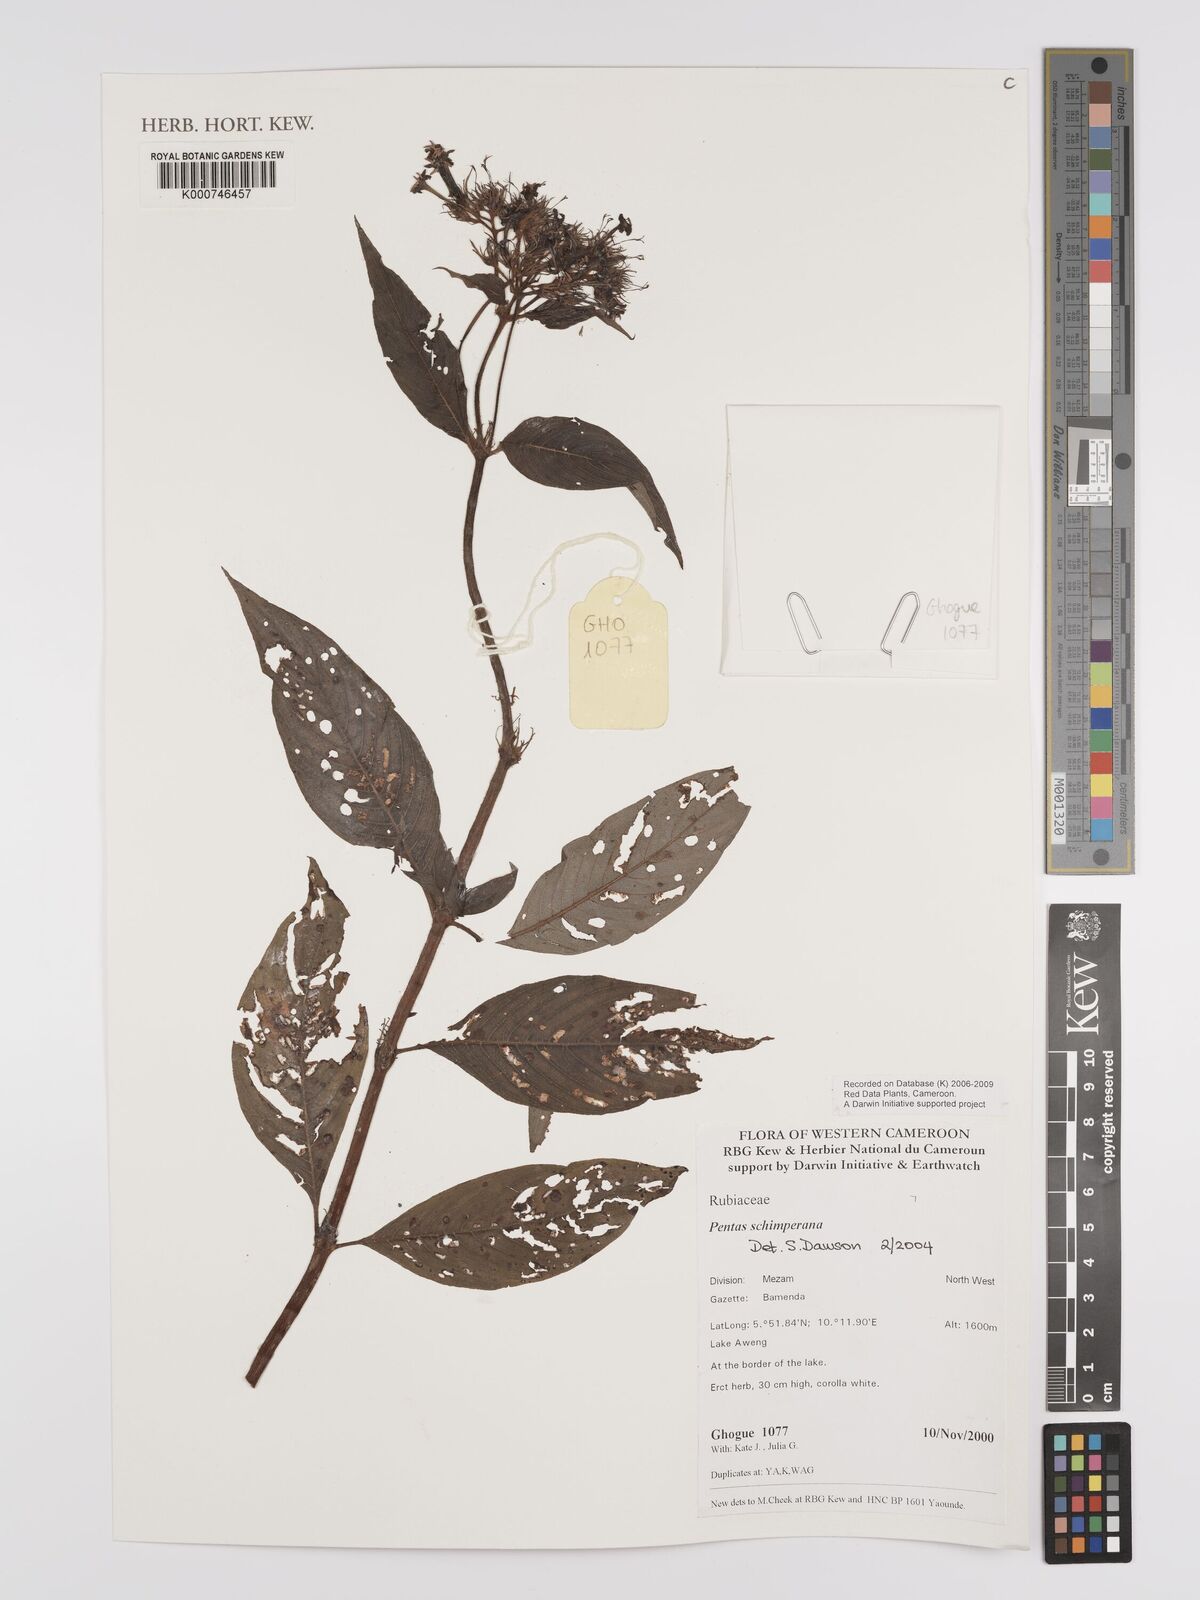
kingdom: Plantae
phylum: Tracheophyta
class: Magnoliopsida
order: Gentianales
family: Rubiaceae
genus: Phyllopentas
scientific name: Phyllopentas schimperi
